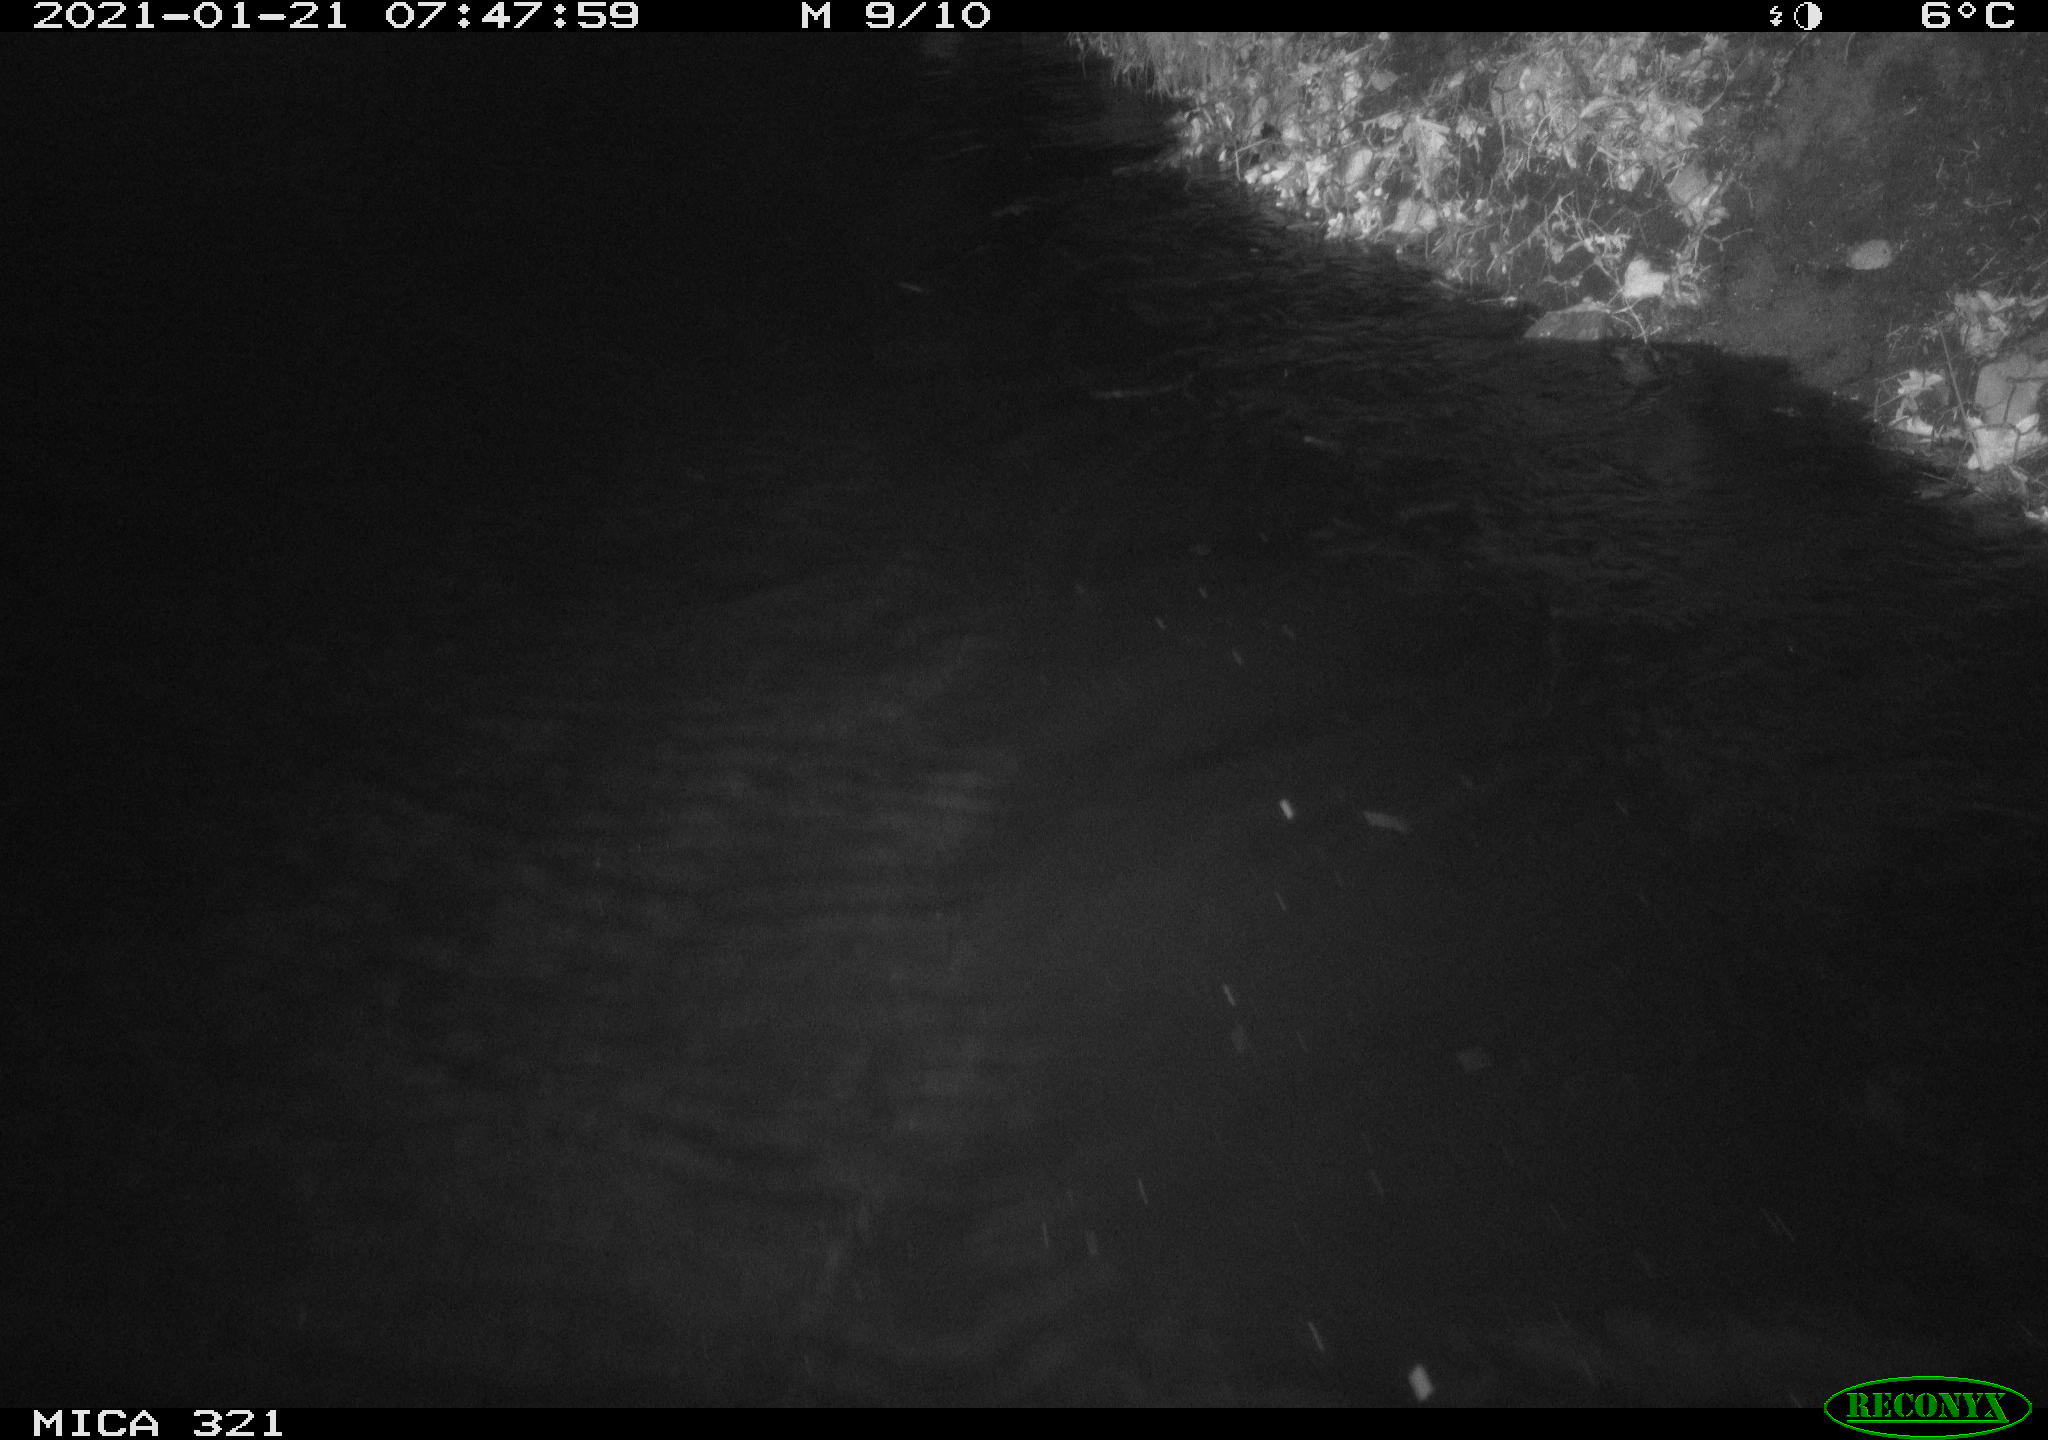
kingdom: Animalia
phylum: Chordata
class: Aves
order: Anseriformes
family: Anatidae
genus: Anas
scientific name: Anas platyrhynchos
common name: Mallard
